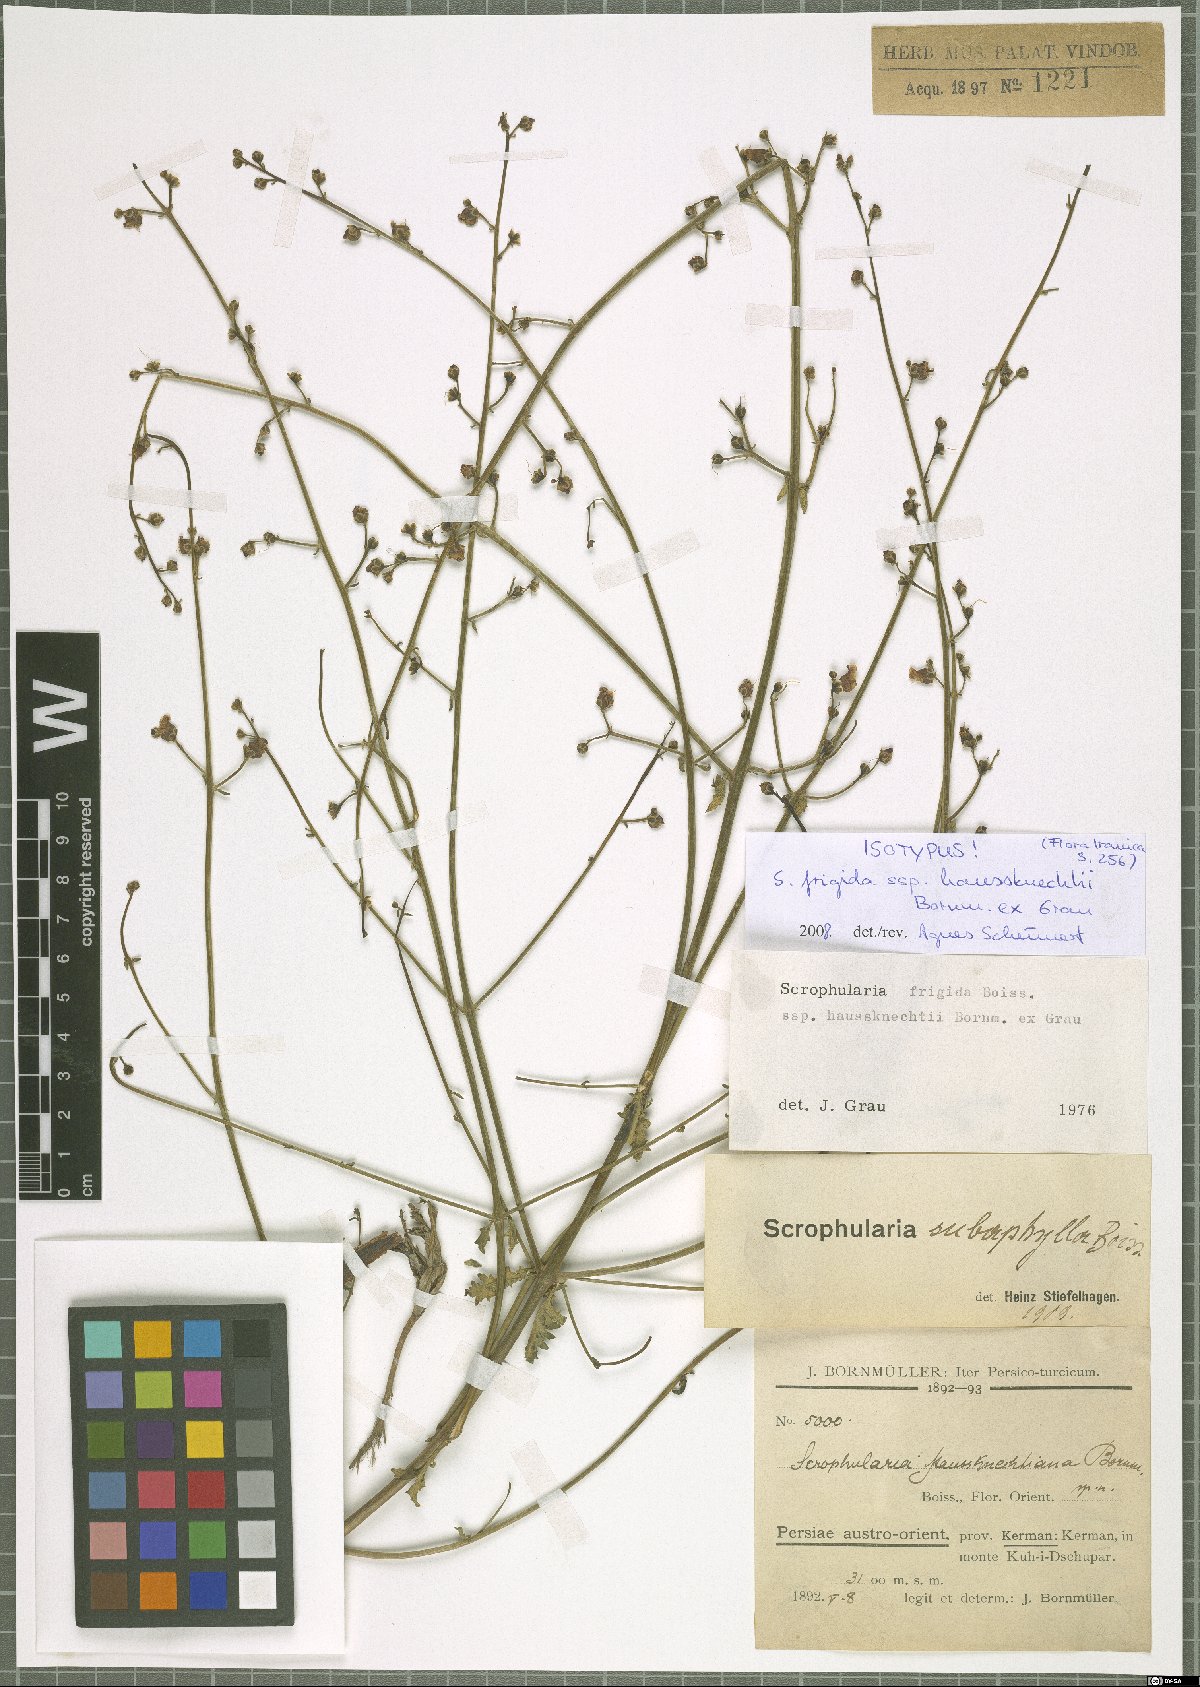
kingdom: Plantae
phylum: Tracheophyta
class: Magnoliopsida
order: Lamiales
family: Scrophulariaceae
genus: Scrophularia
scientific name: Scrophularia frigida
